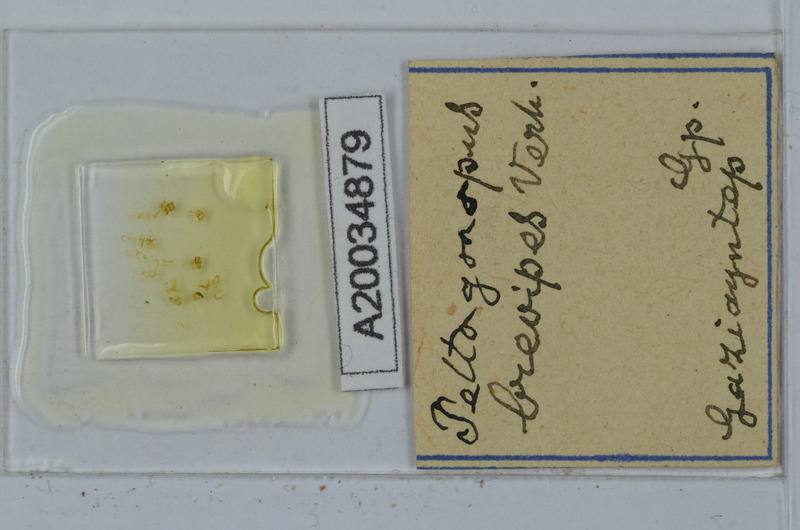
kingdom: Animalia
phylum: Arthropoda
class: Diplopoda
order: Polydesmida
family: Polydesmidae
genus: Peltogonopus
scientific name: Peltogonopus
